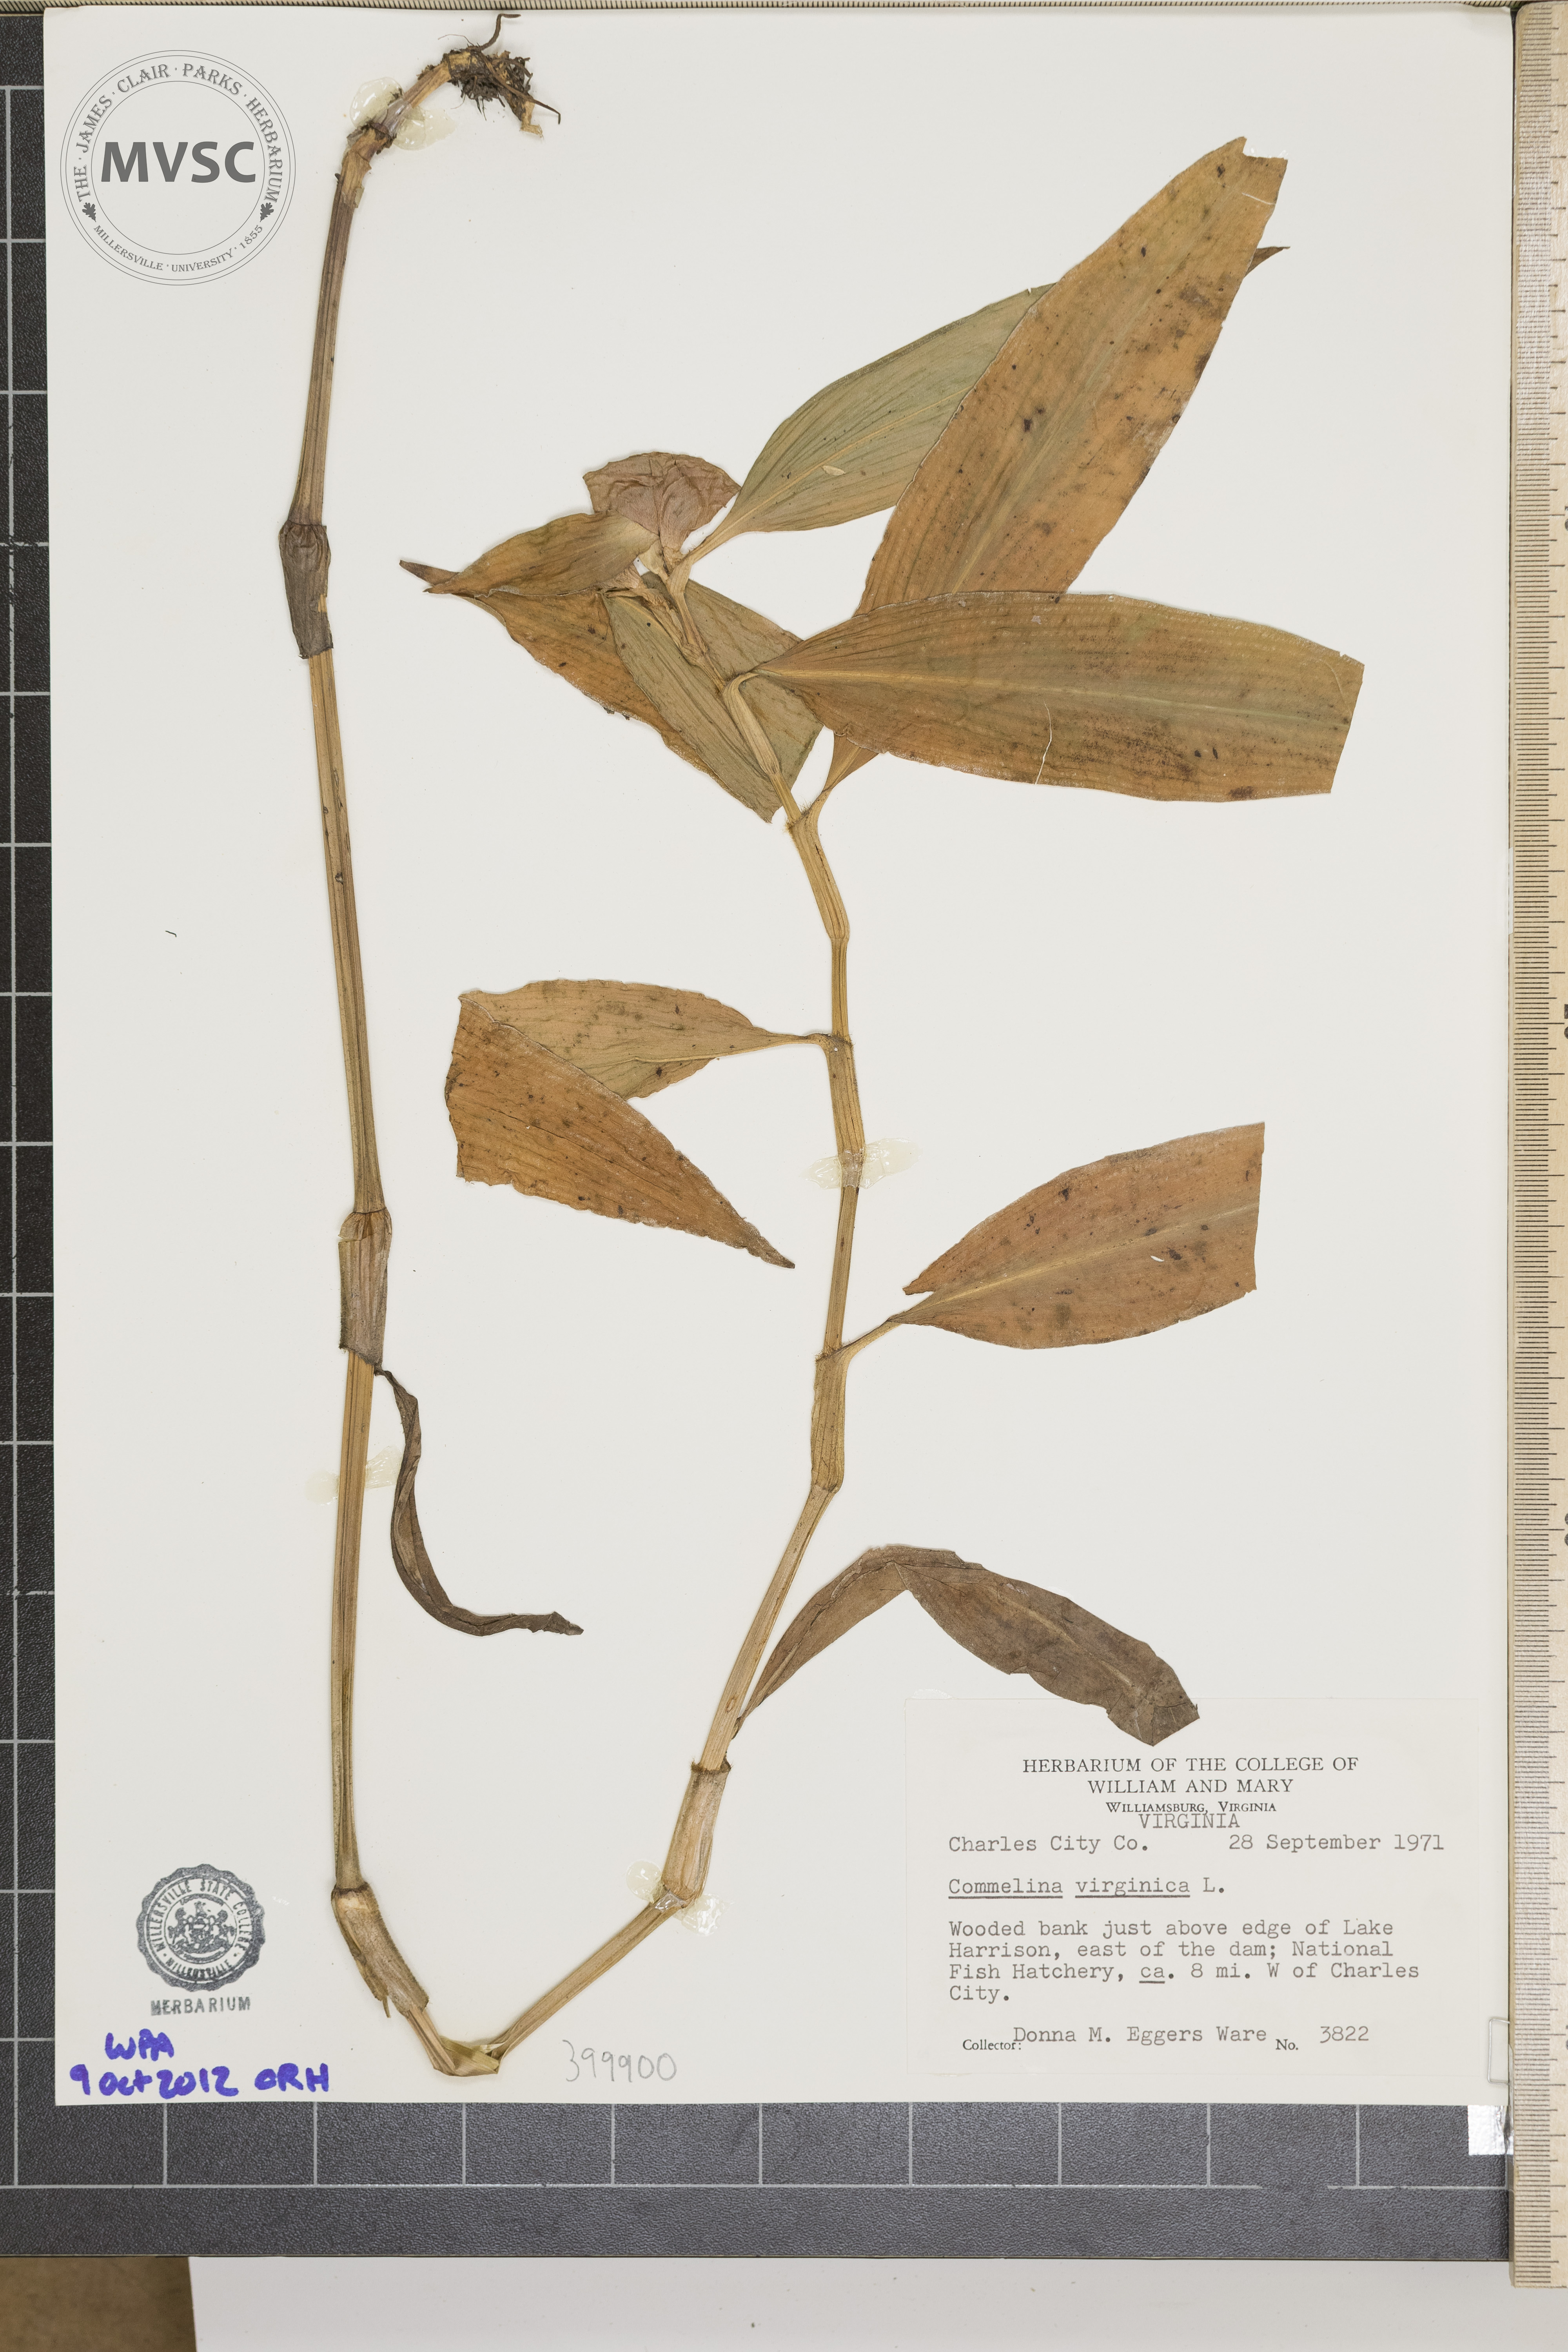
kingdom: Plantae
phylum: Tracheophyta
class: Liliopsida
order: Commelinales
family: Commelinaceae
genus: Commelina
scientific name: Commelina virginica
